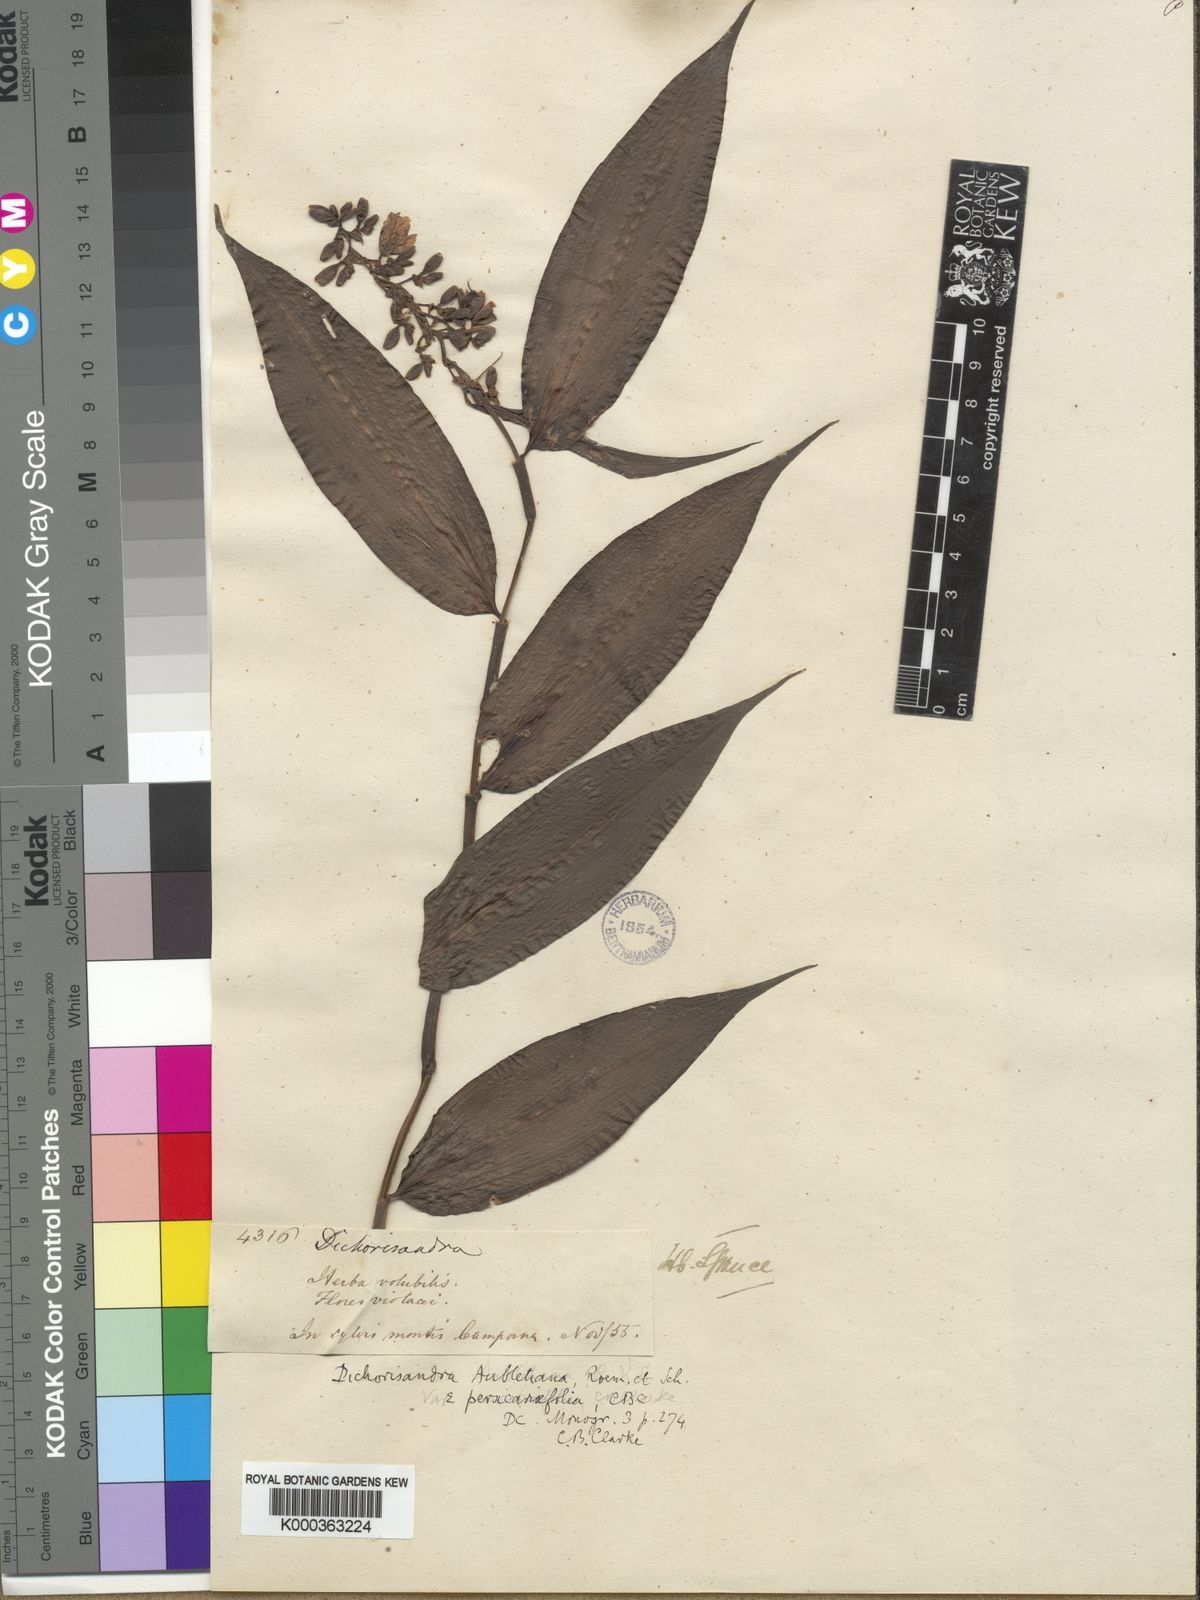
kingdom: Plantae
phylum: Tracheophyta
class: Liliopsida
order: Commelinales
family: Commelinaceae
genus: Dichorisandra
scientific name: Dichorisandra hexandra
